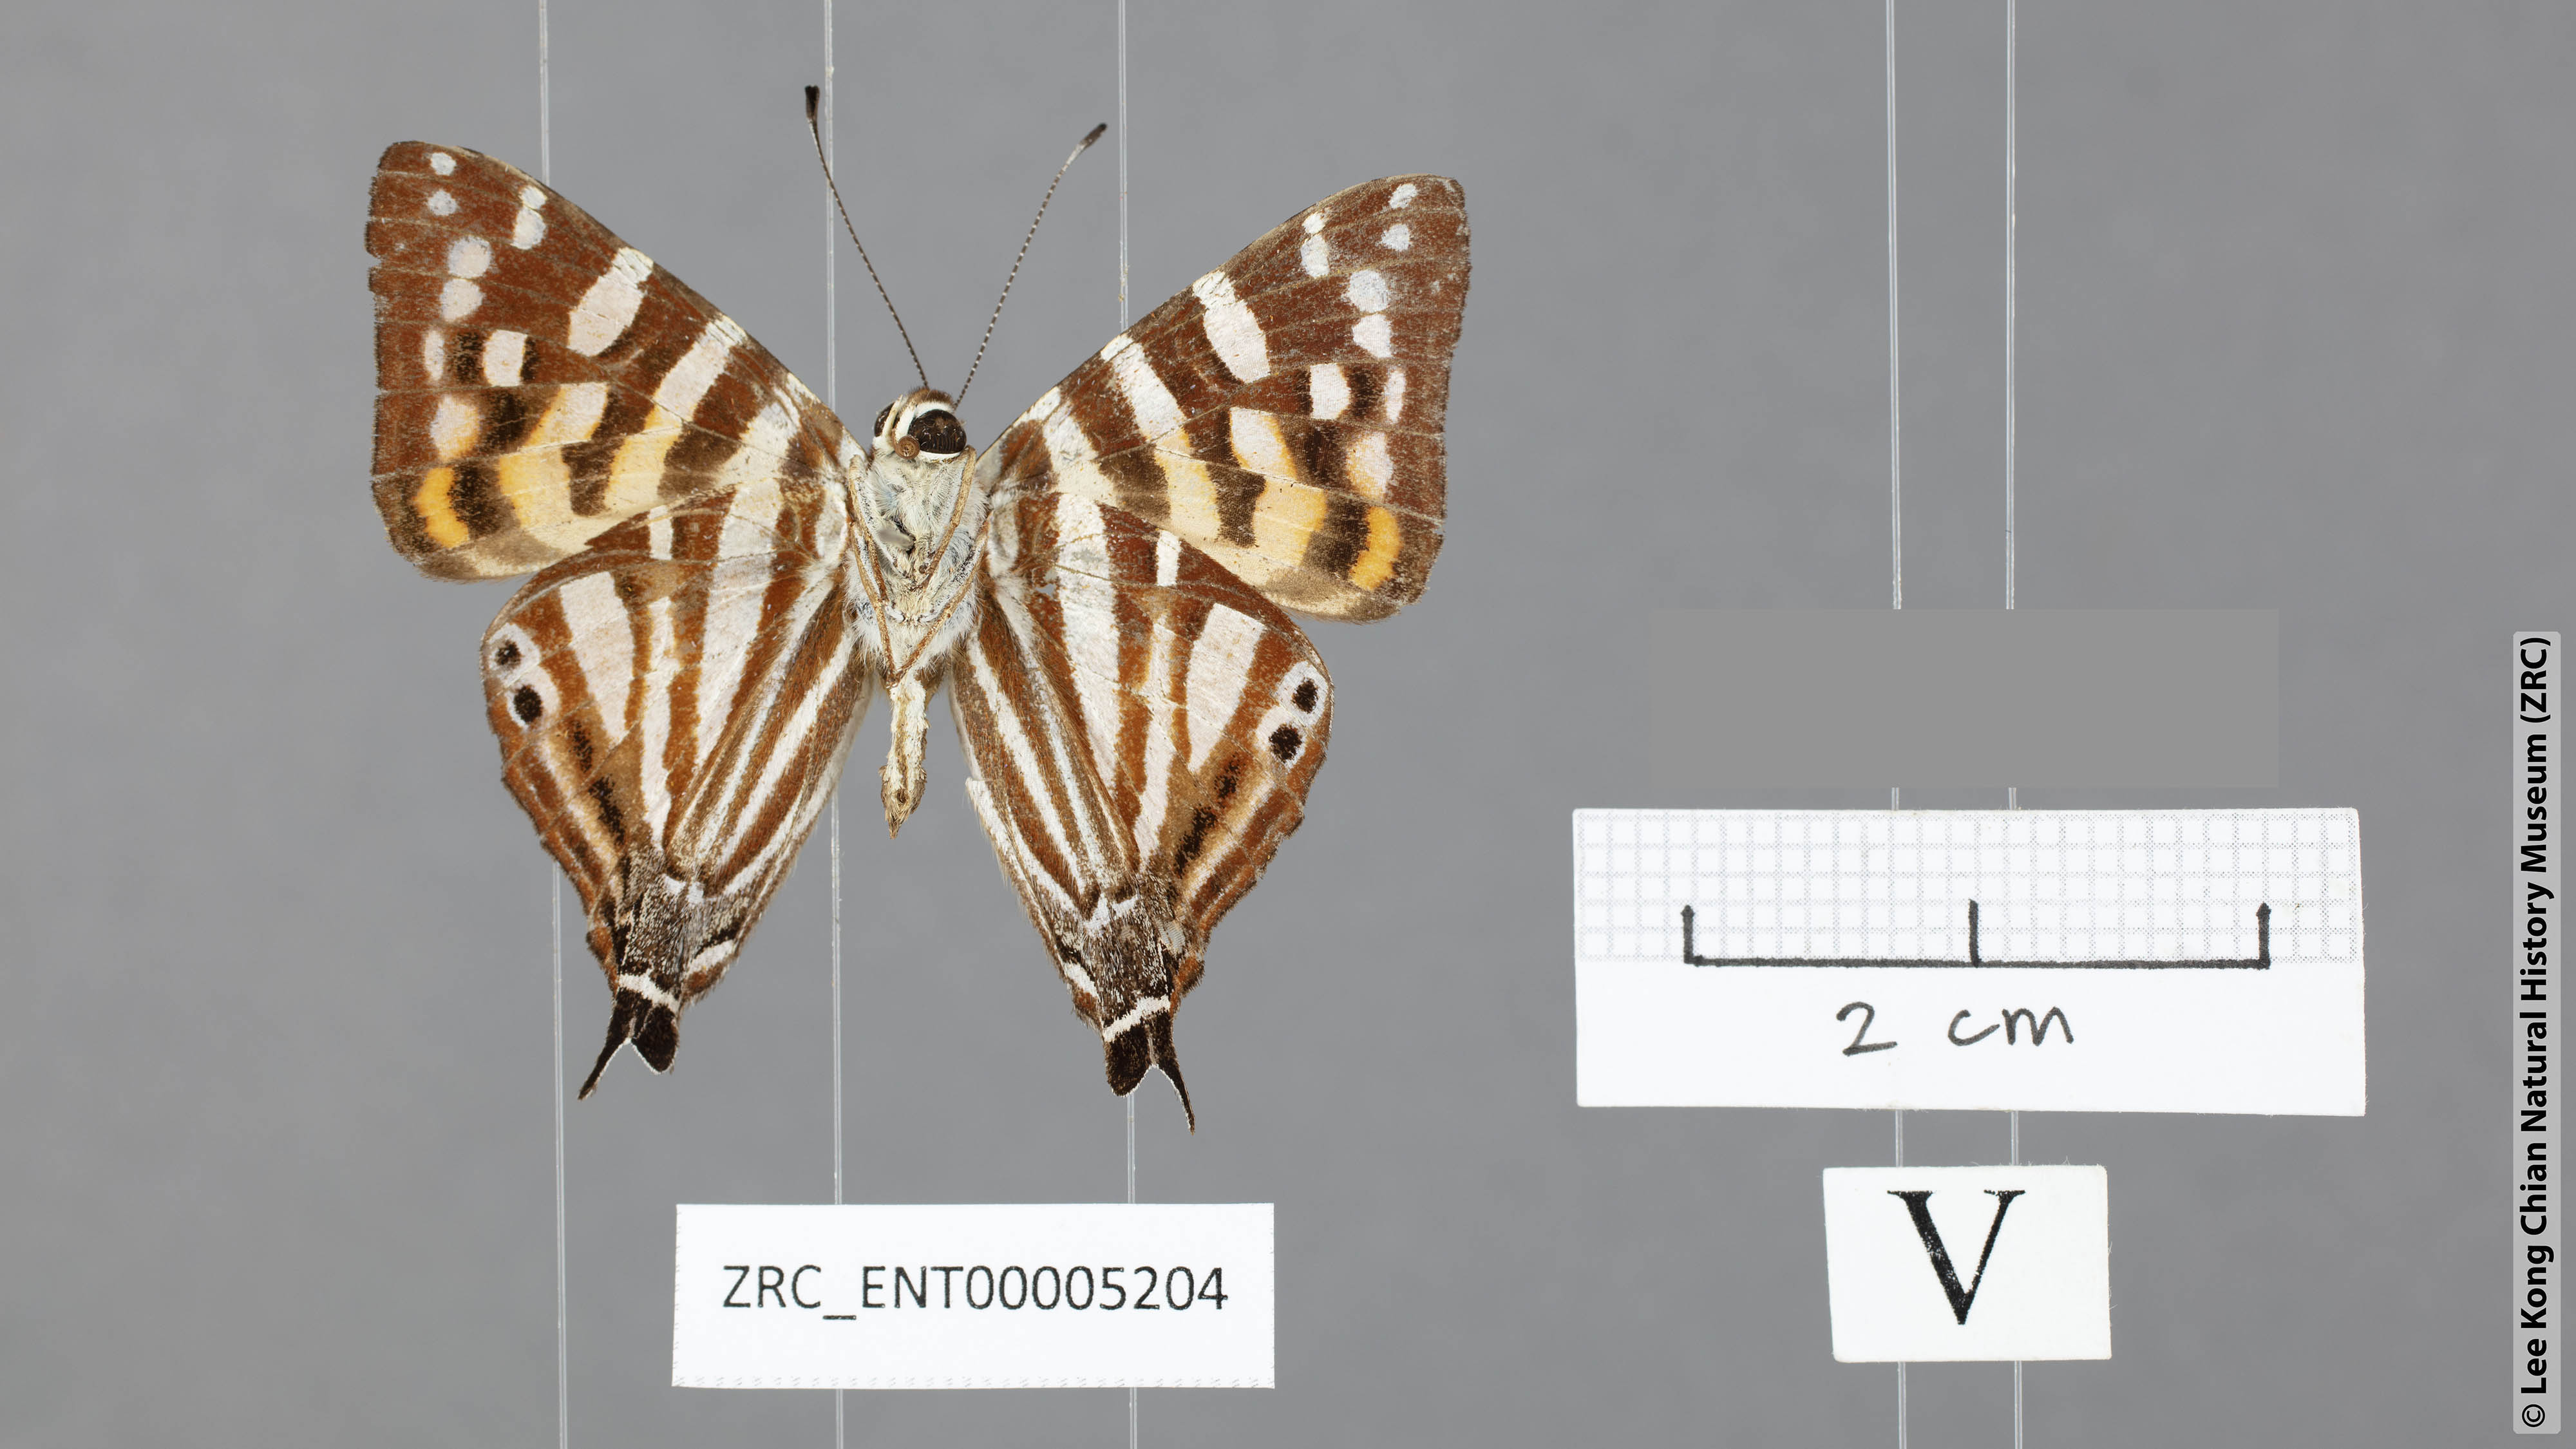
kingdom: Animalia
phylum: Arthropoda
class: Insecta
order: Lepidoptera
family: Lycaenidae
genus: Dodona
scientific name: Dodona egeon
